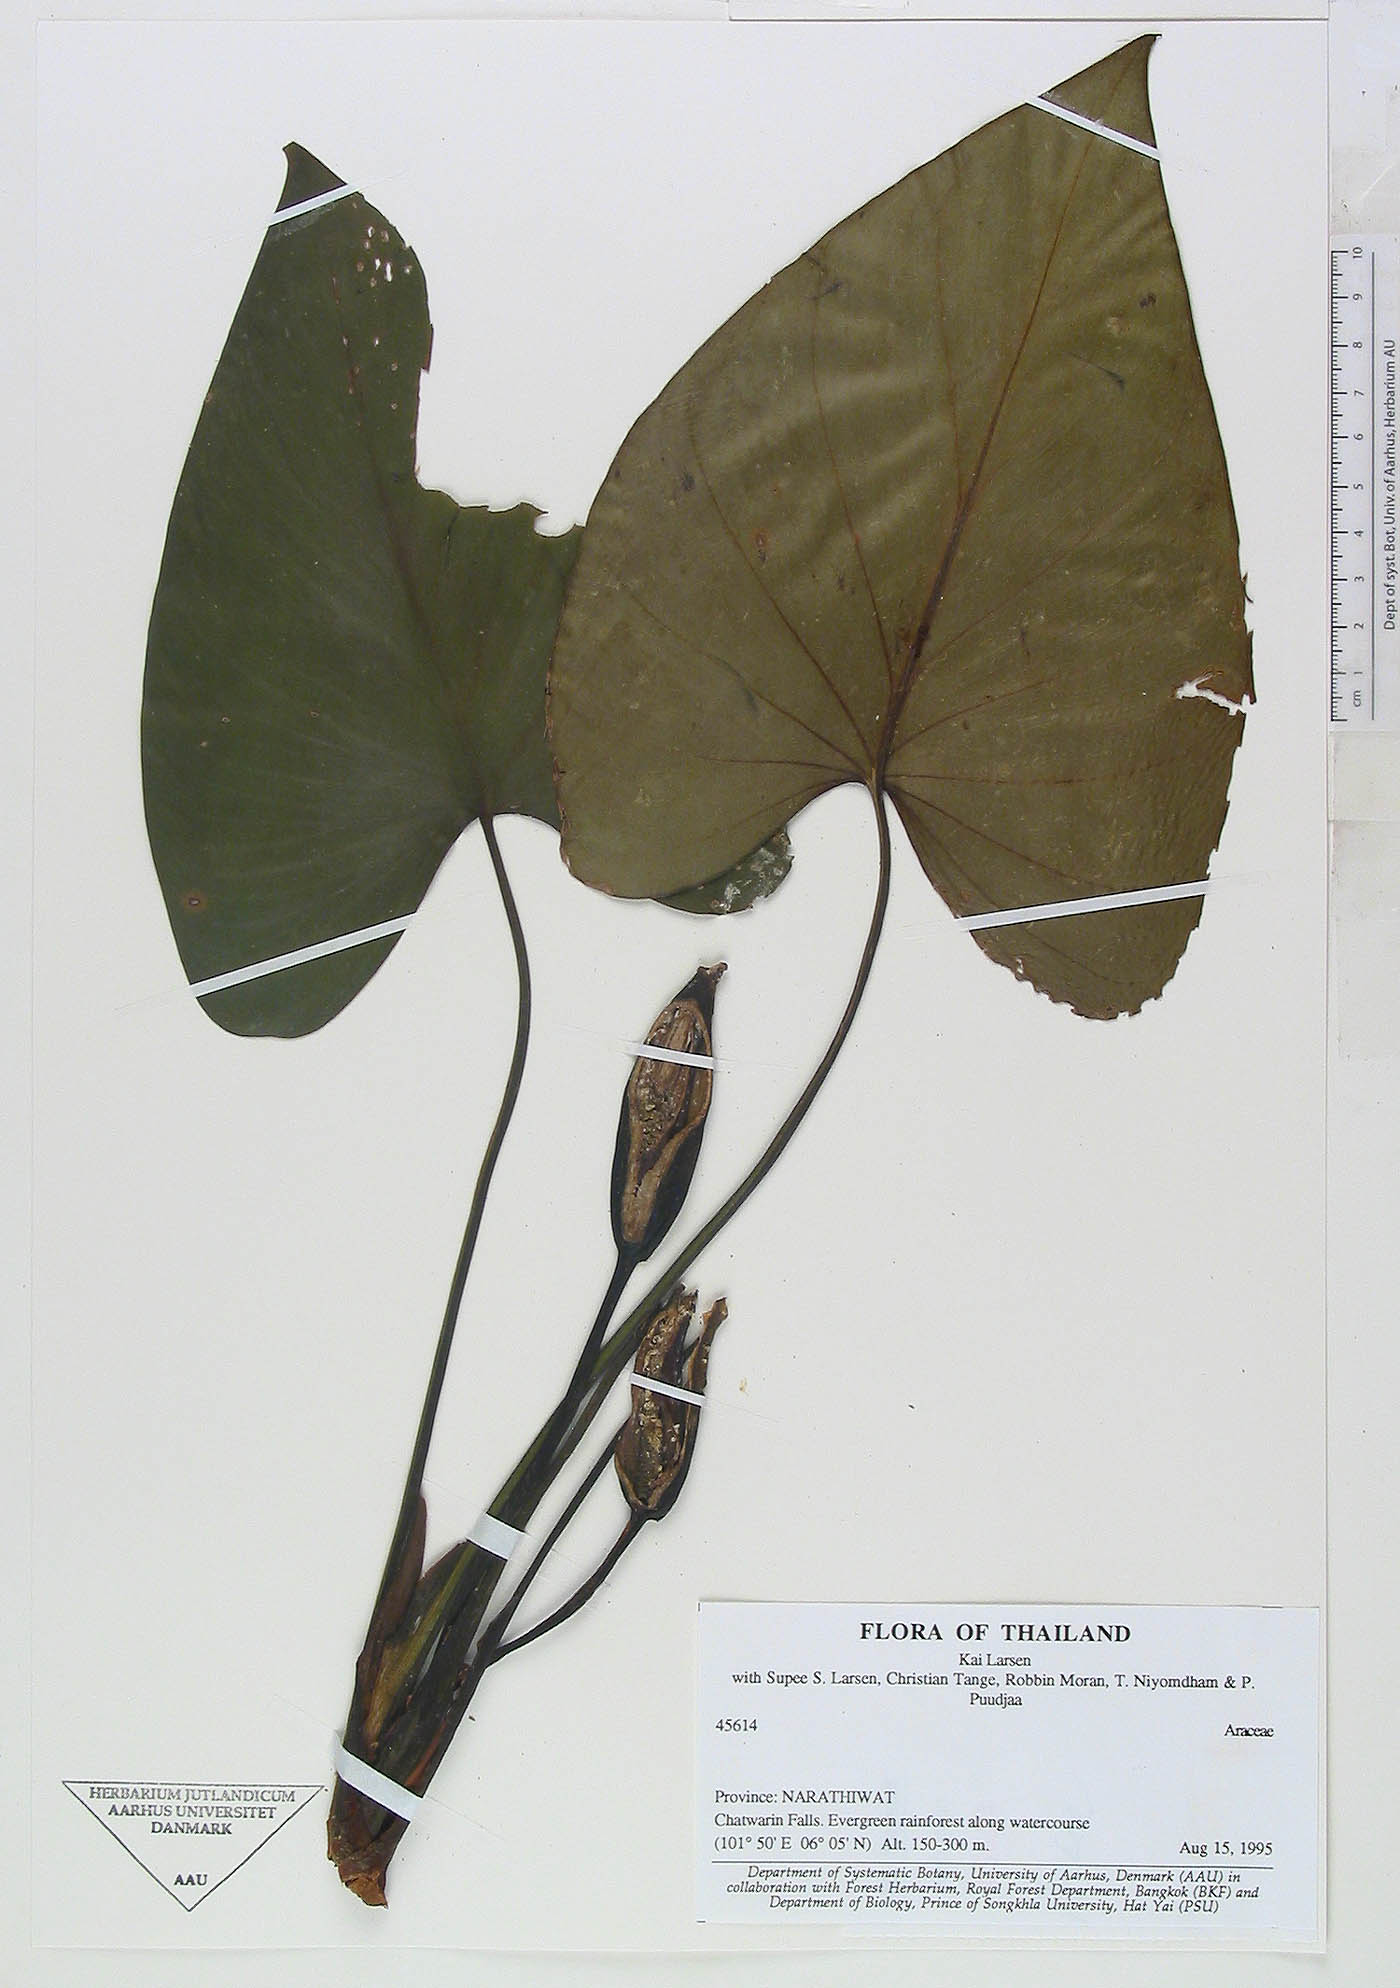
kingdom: Plantae
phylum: Tracheophyta
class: Liliopsida
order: Alismatales
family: Araceae
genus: Homalomena
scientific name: Homalomena pontederaefolia
